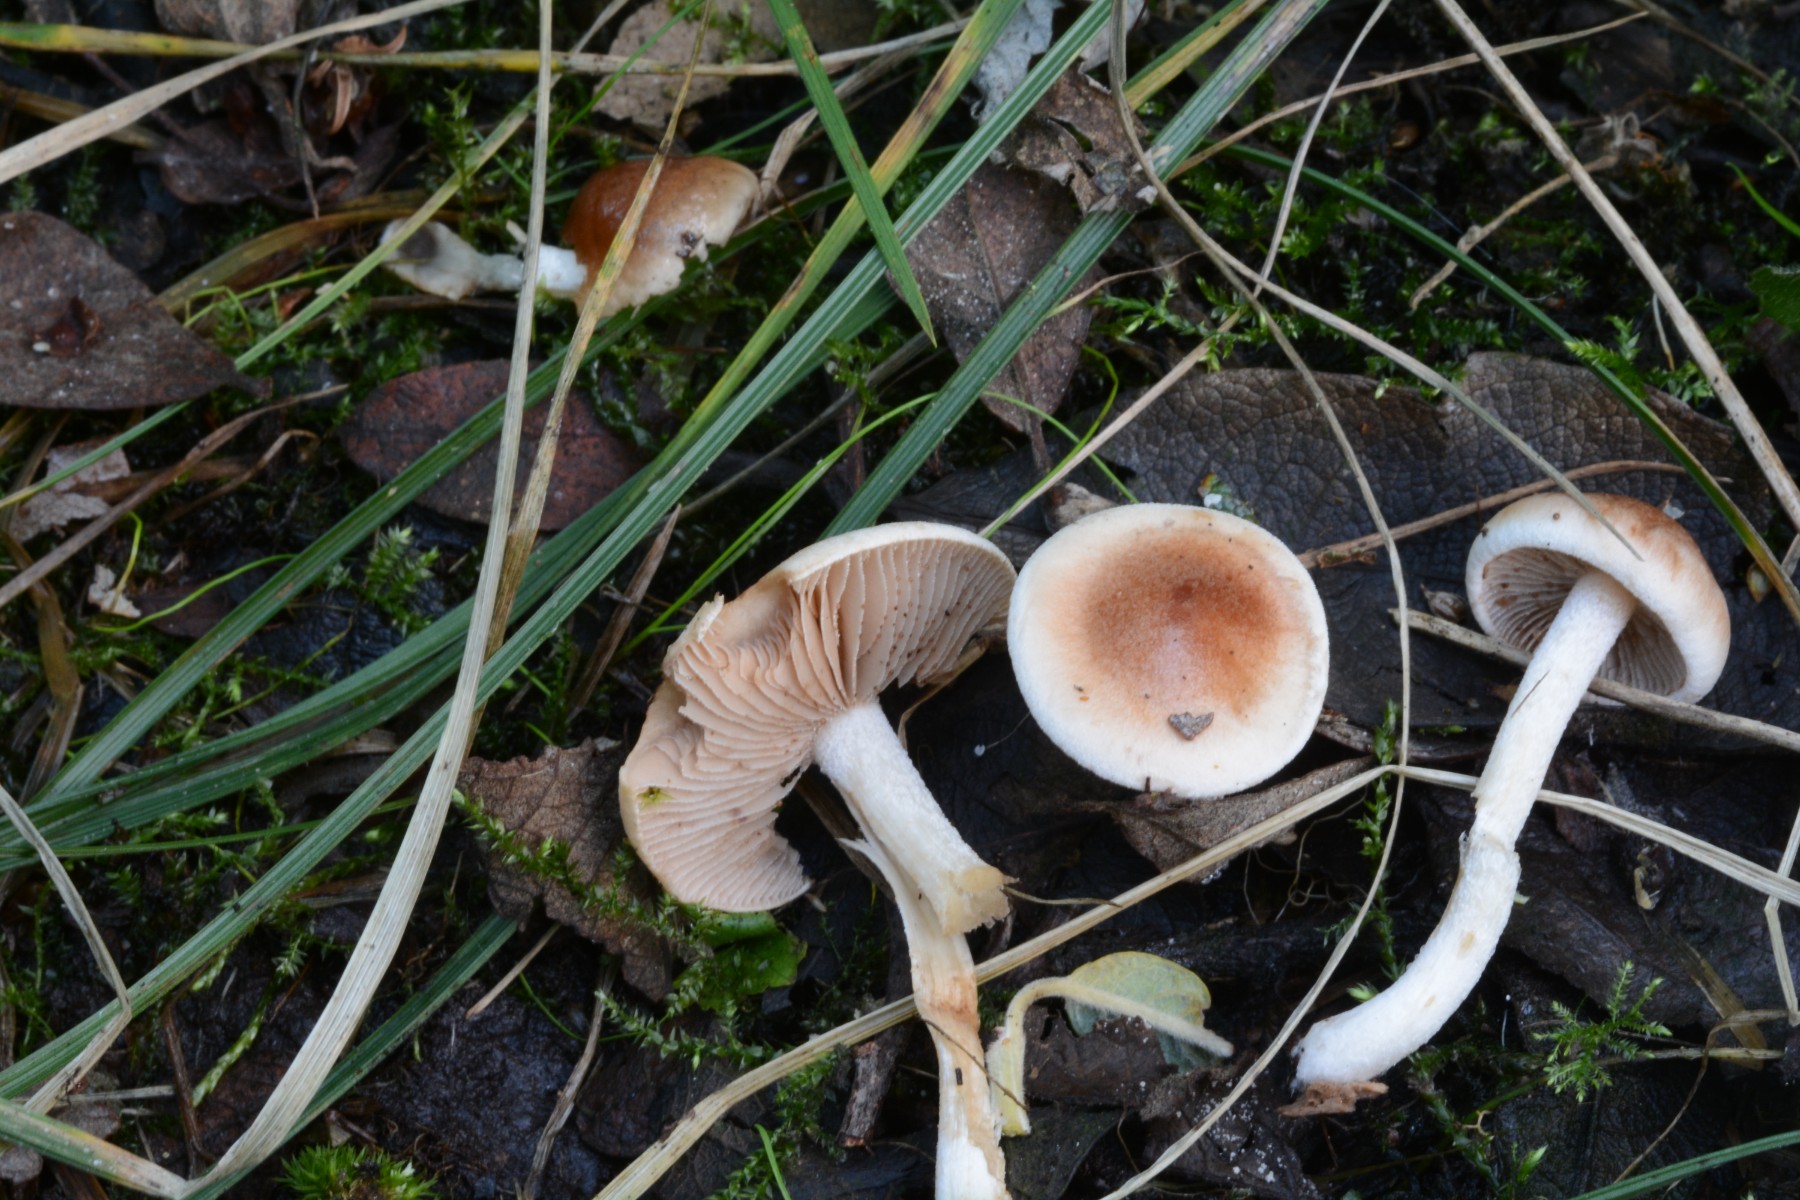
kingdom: Fungi
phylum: Basidiomycota
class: Agaricomycetes
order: Agaricales
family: Hymenogastraceae
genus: Hebeloma
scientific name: Hebeloma
